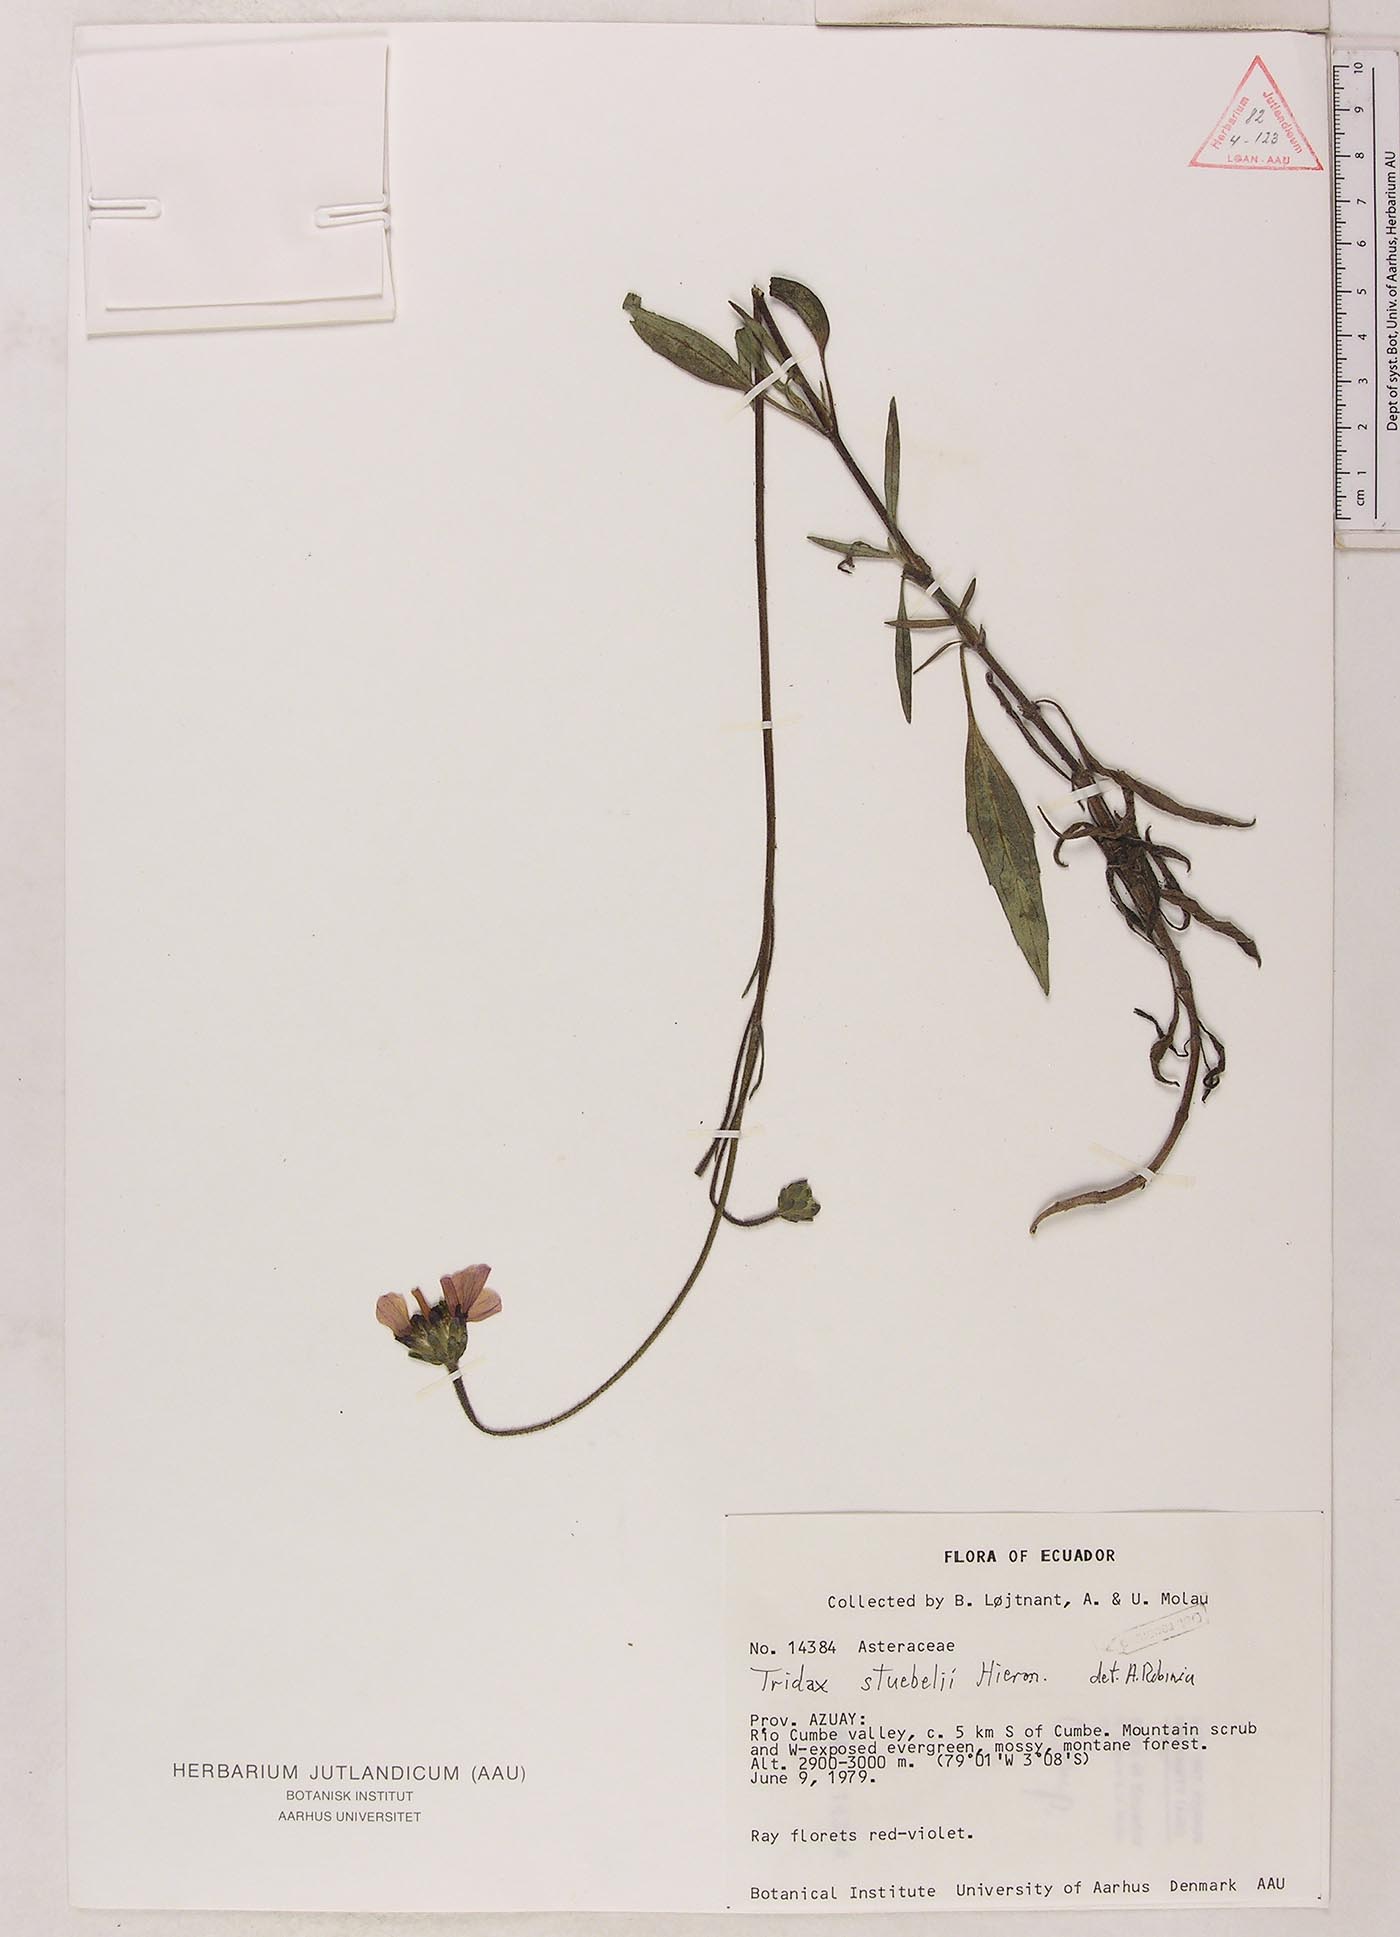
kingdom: Plantae
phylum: Tracheophyta
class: Magnoliopsida
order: Asterales
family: Asteraceae
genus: Tridax
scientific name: Tridax stuebelii
